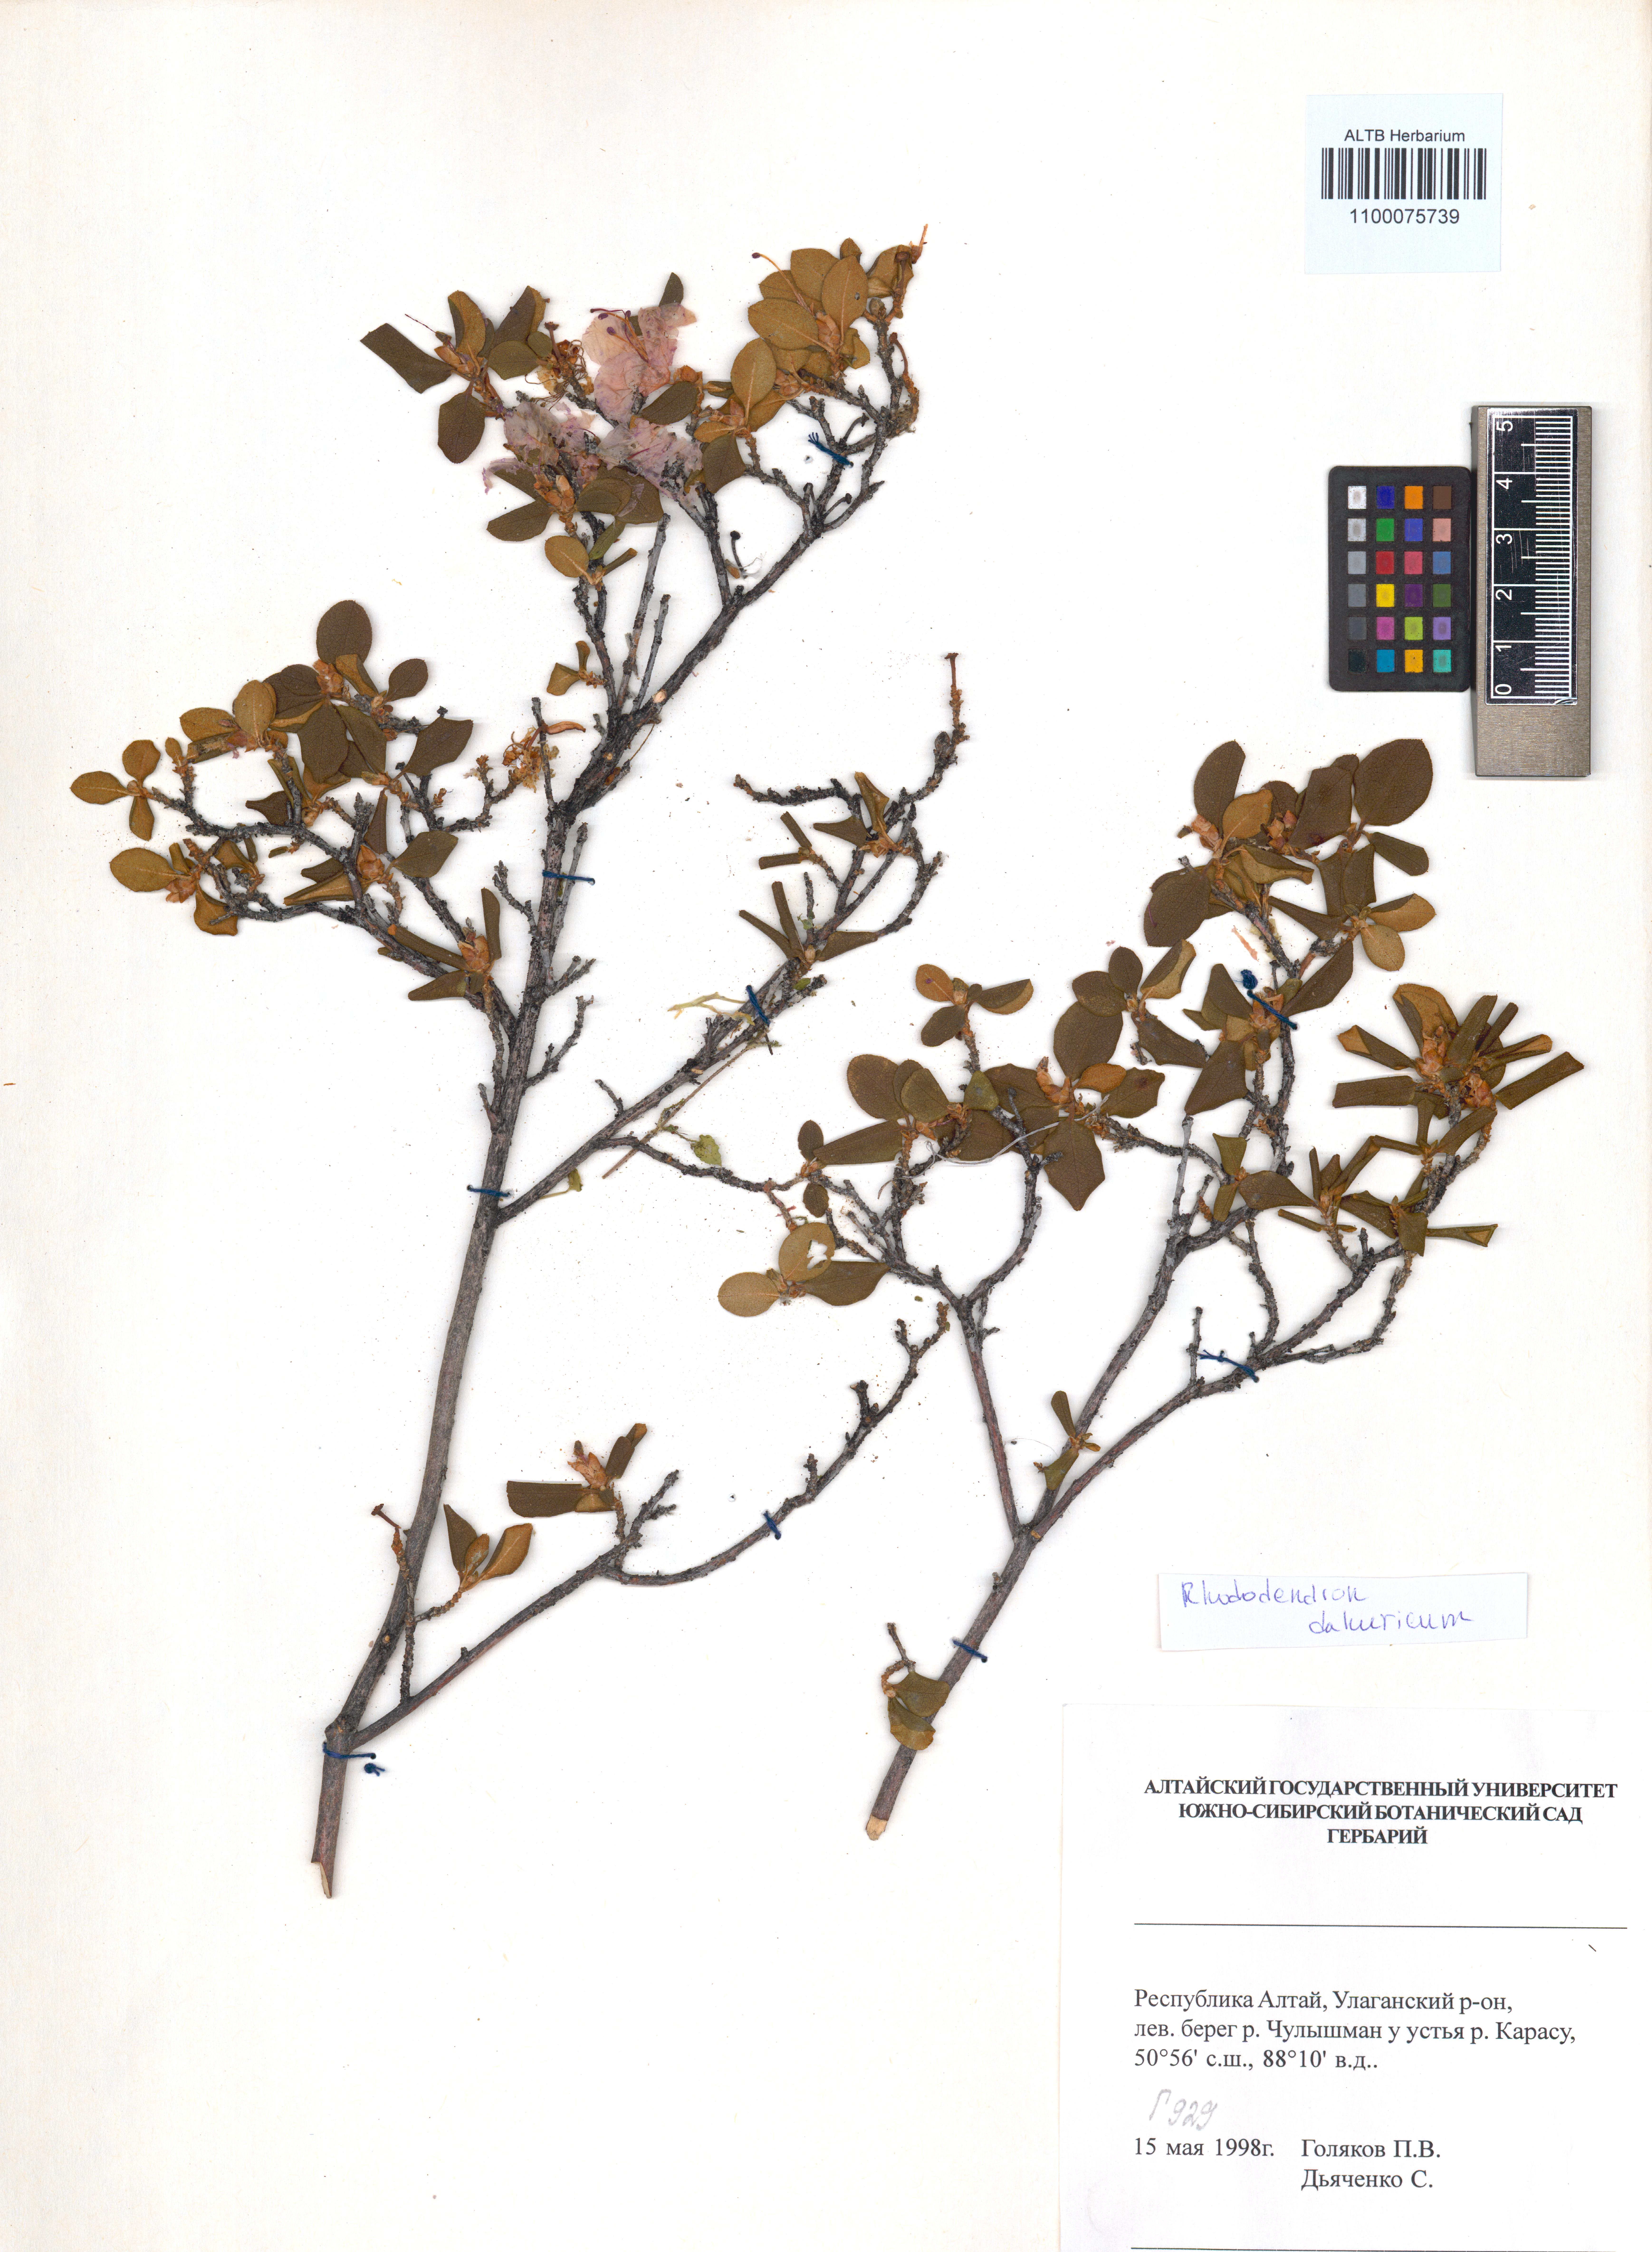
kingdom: Plantae
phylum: Tracheophyta
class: Magnoliopsida
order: Ericales
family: Ericaceae
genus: Rhododendron
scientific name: Rhododendron dauricum
